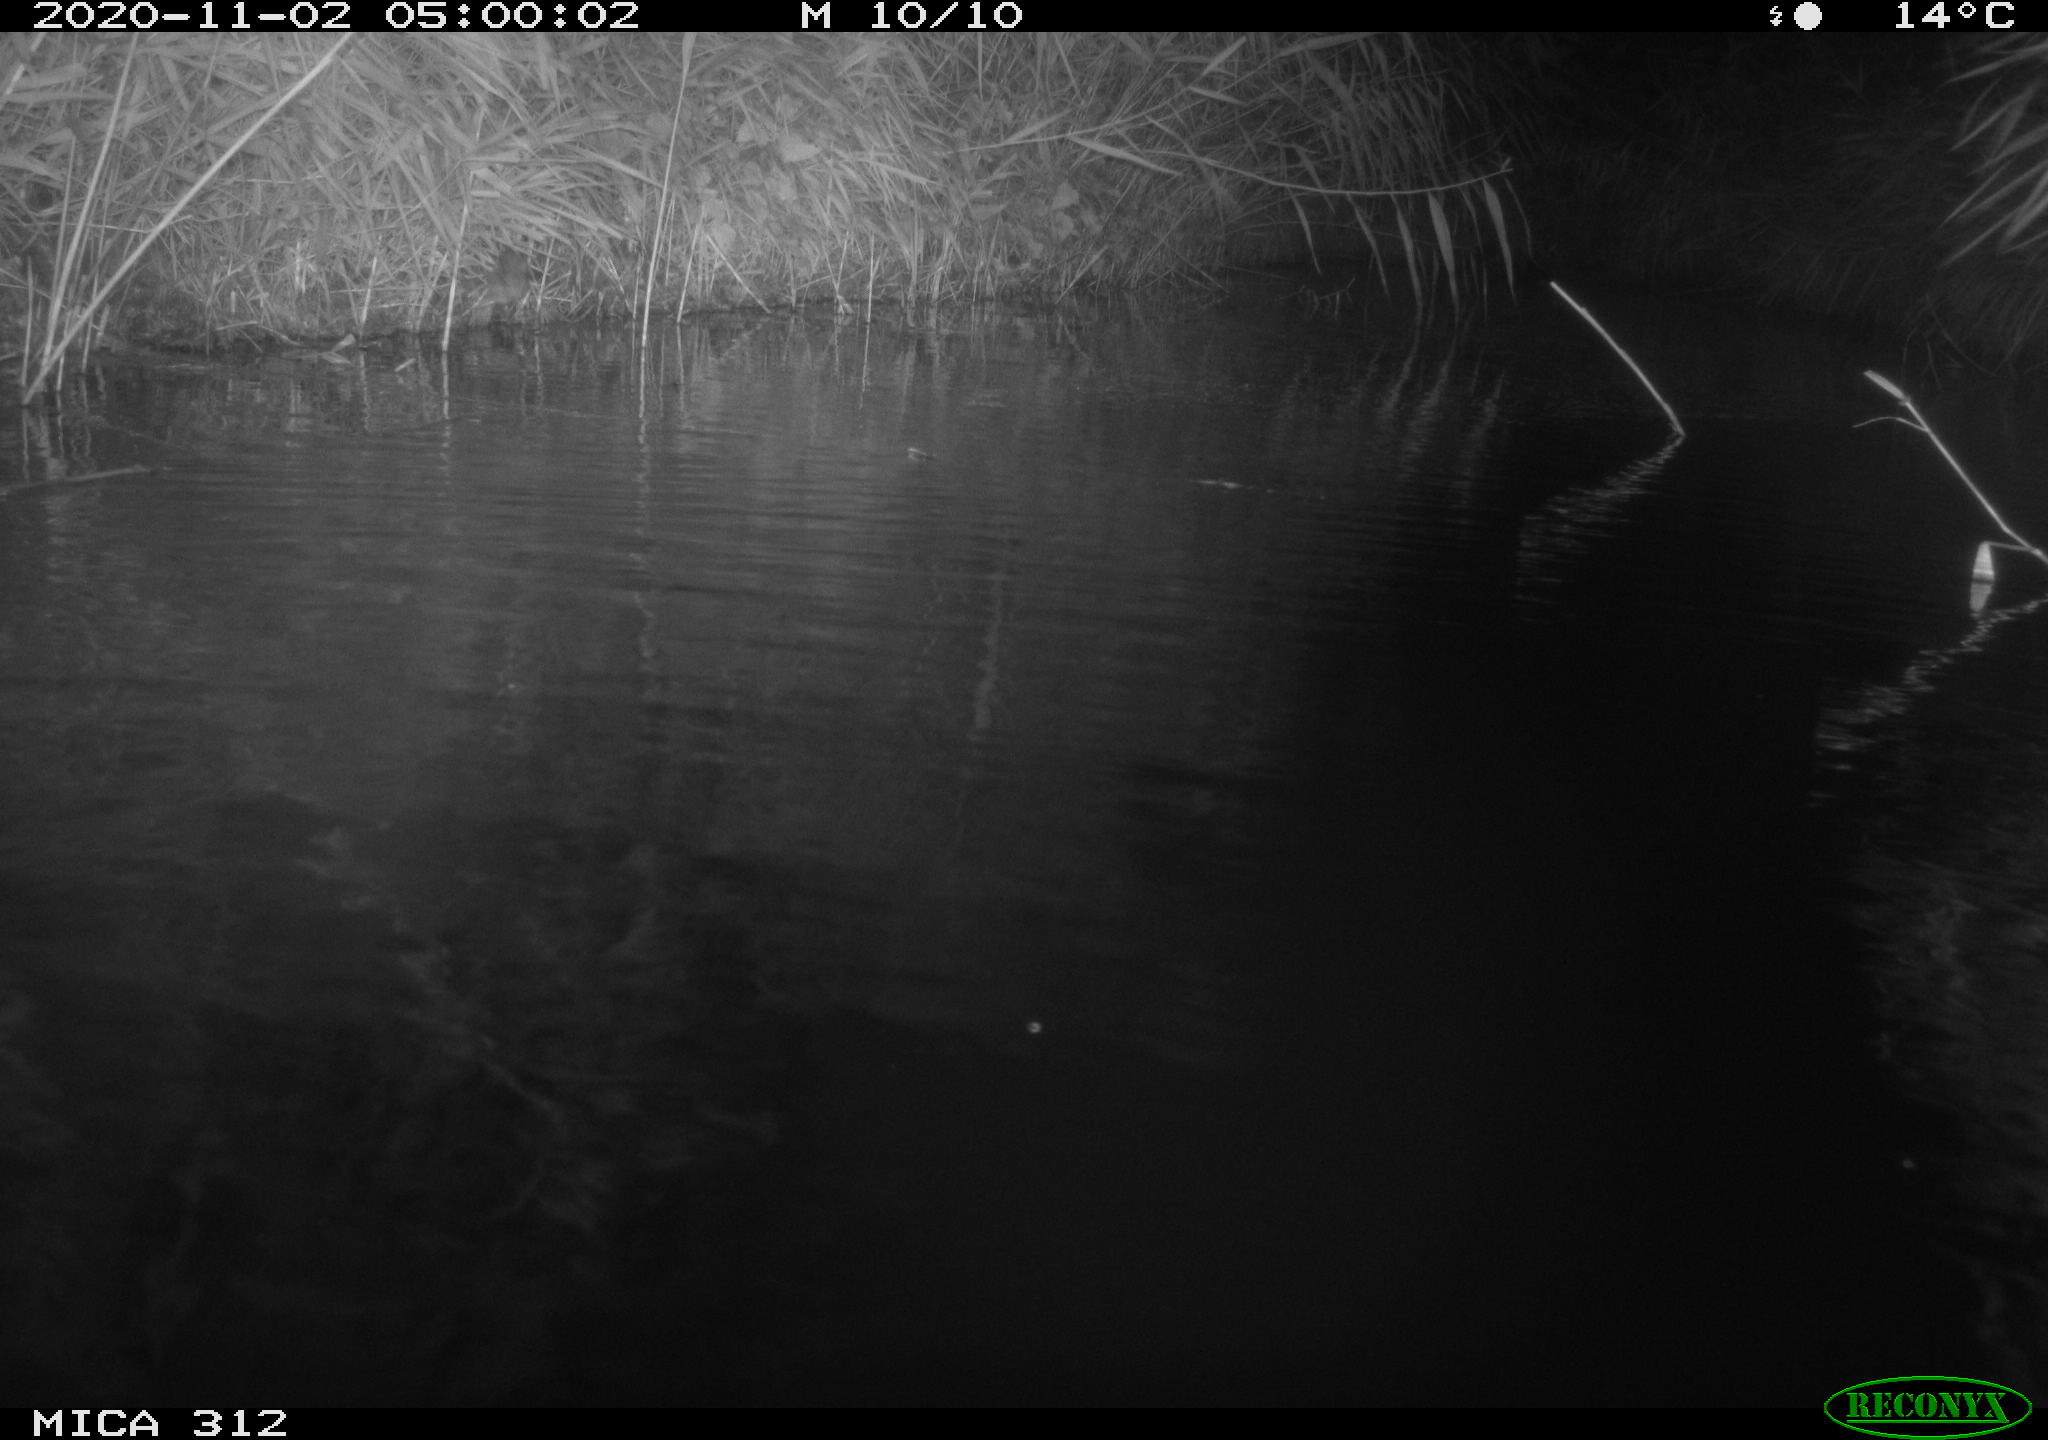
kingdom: Animalia
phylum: Chordata
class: Mammalia
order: Rodentia
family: Muridae
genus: Rattus
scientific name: Rattus norvegicus
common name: Brown rat
